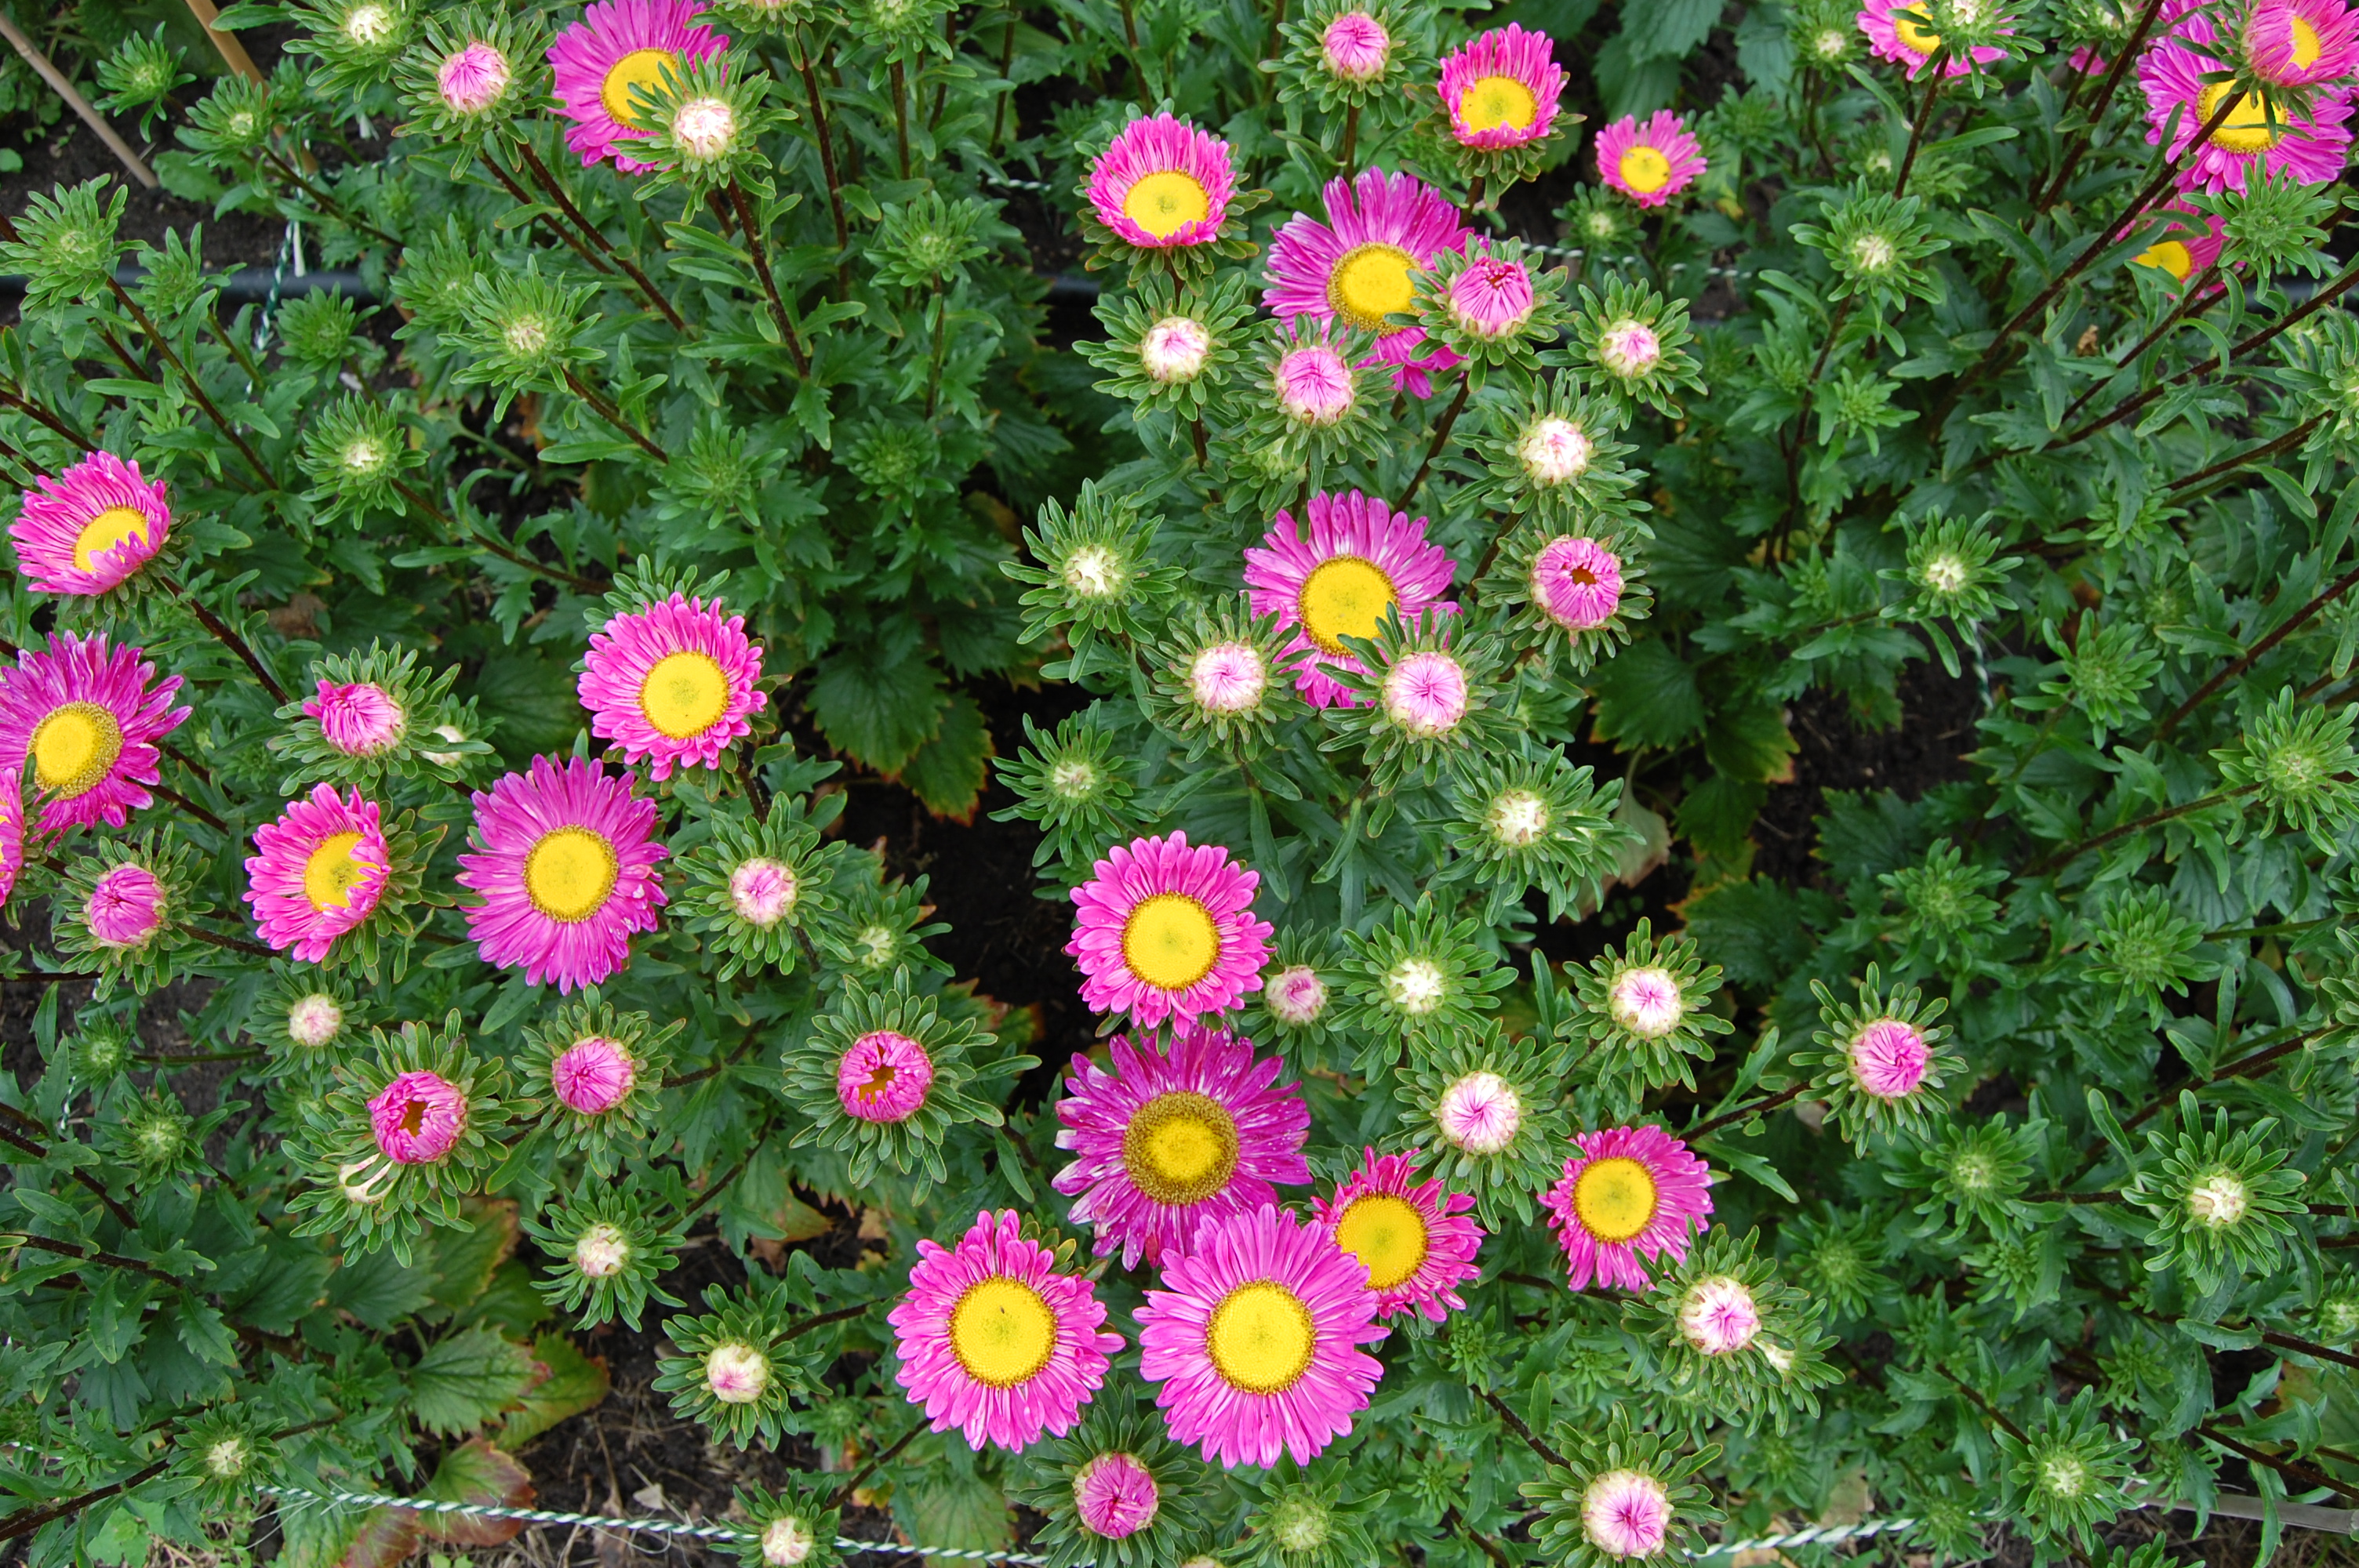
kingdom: Plantae
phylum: Tracheophyta
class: Magnoliopsida
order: Asterales
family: Asteraceae
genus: Callistephus
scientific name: Callistephus chinensis
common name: China aster
